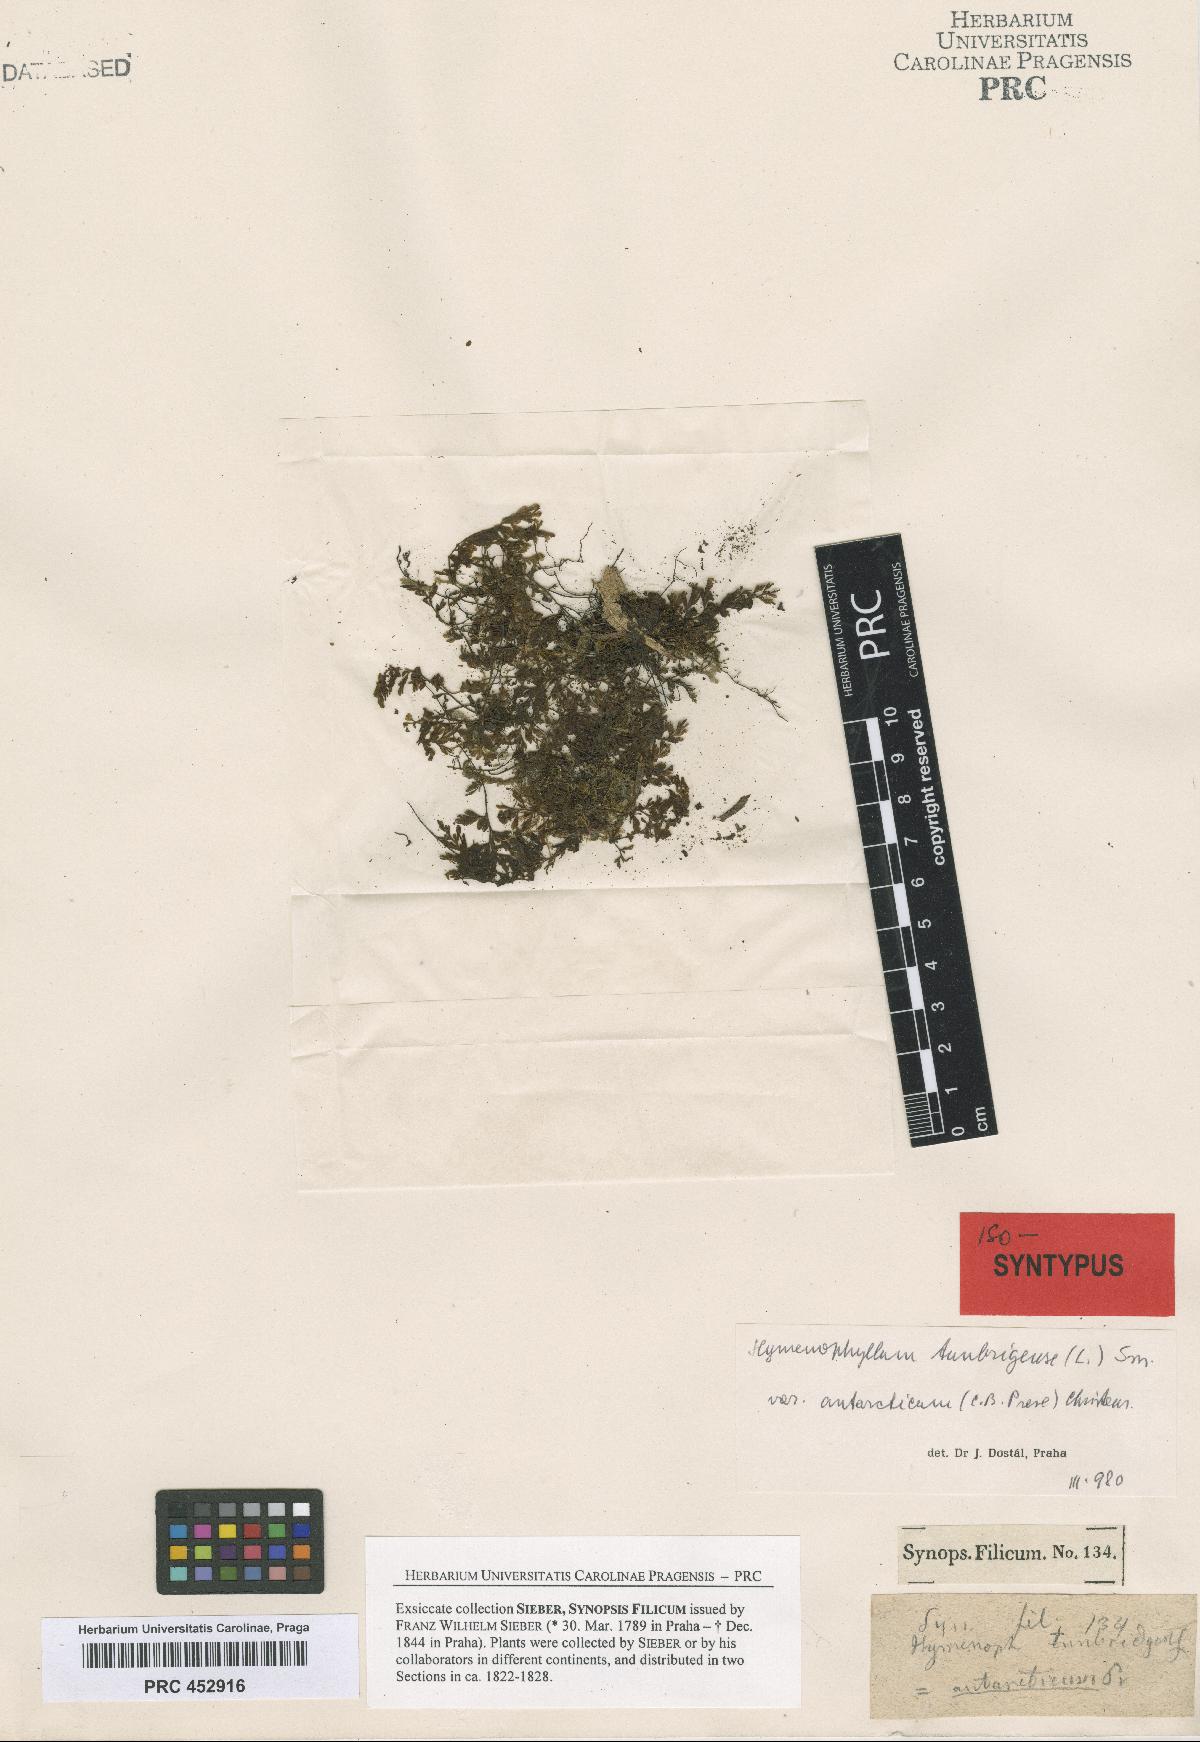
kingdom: Plantae
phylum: Tracheophyta
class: Polypodiopsida
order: Hymenophyllales
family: Hymenophyllaceae
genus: Hymenophyllum
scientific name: Hymenophyllum cupressiforme
